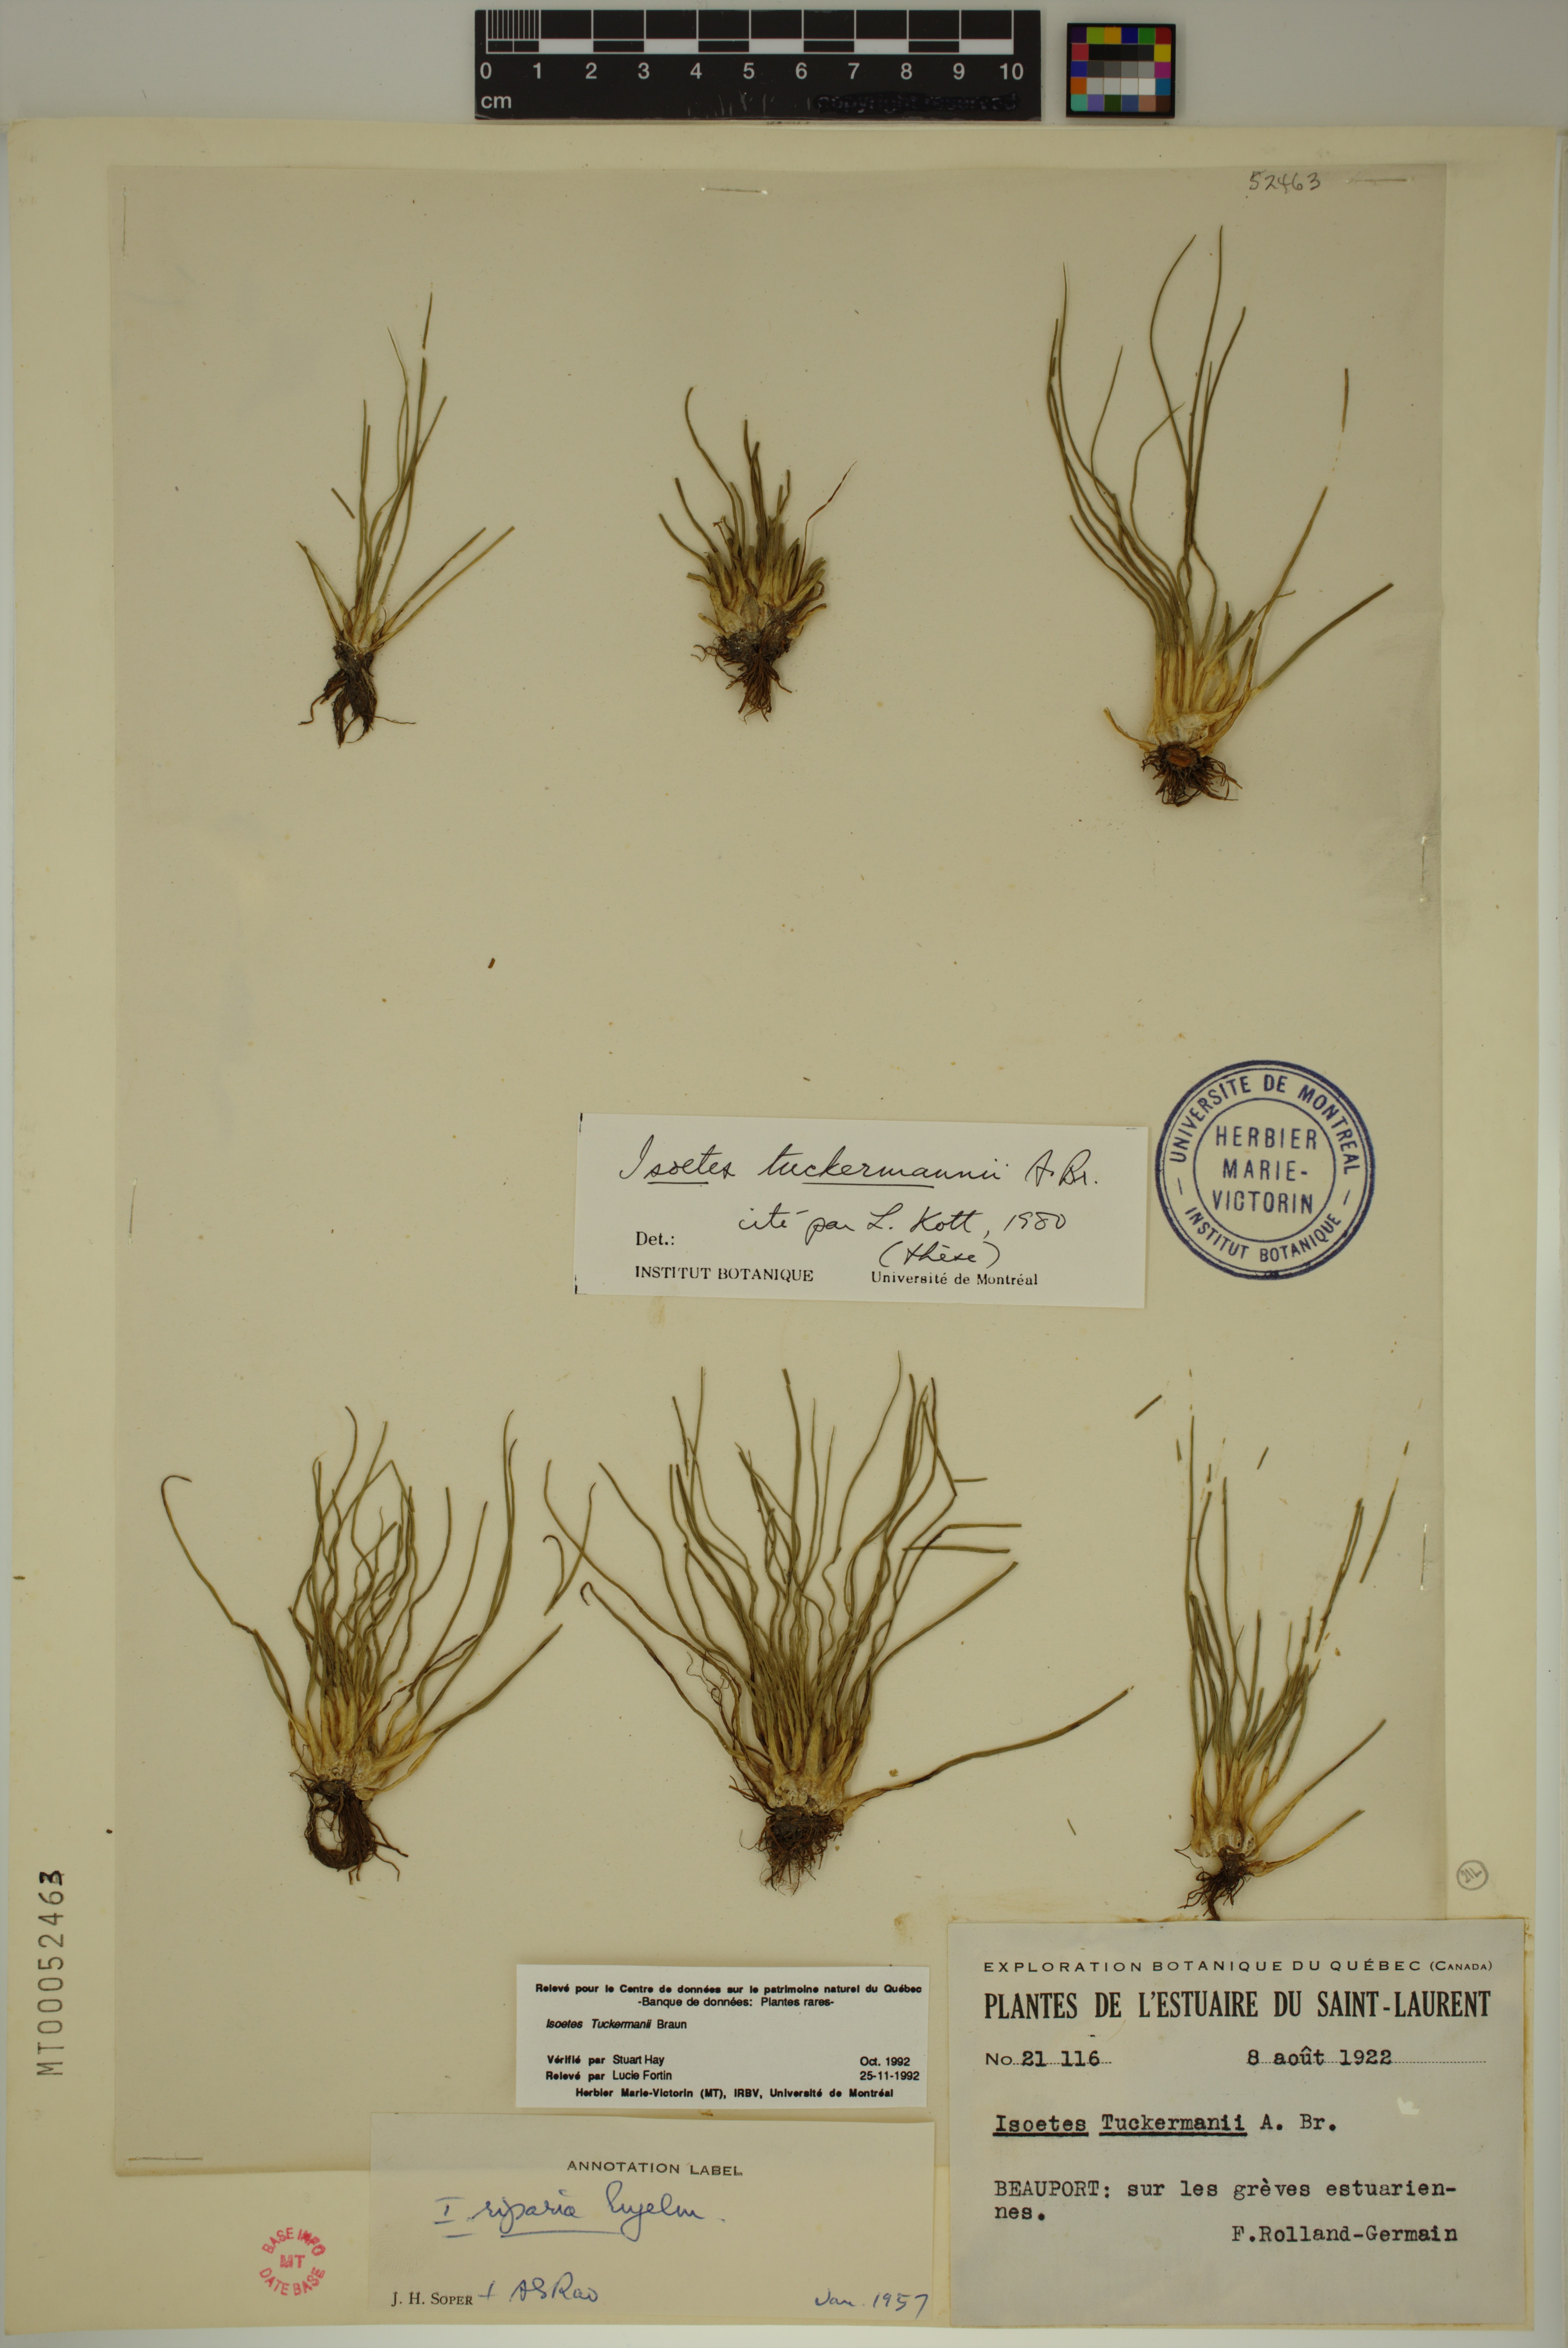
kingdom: Plantae
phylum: Tracheophyta
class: Lycopodiopsida
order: Isoetales
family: Isoetaceae
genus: Isoetes
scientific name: Isoetes laurentiana
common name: St. lawrence quillwort
